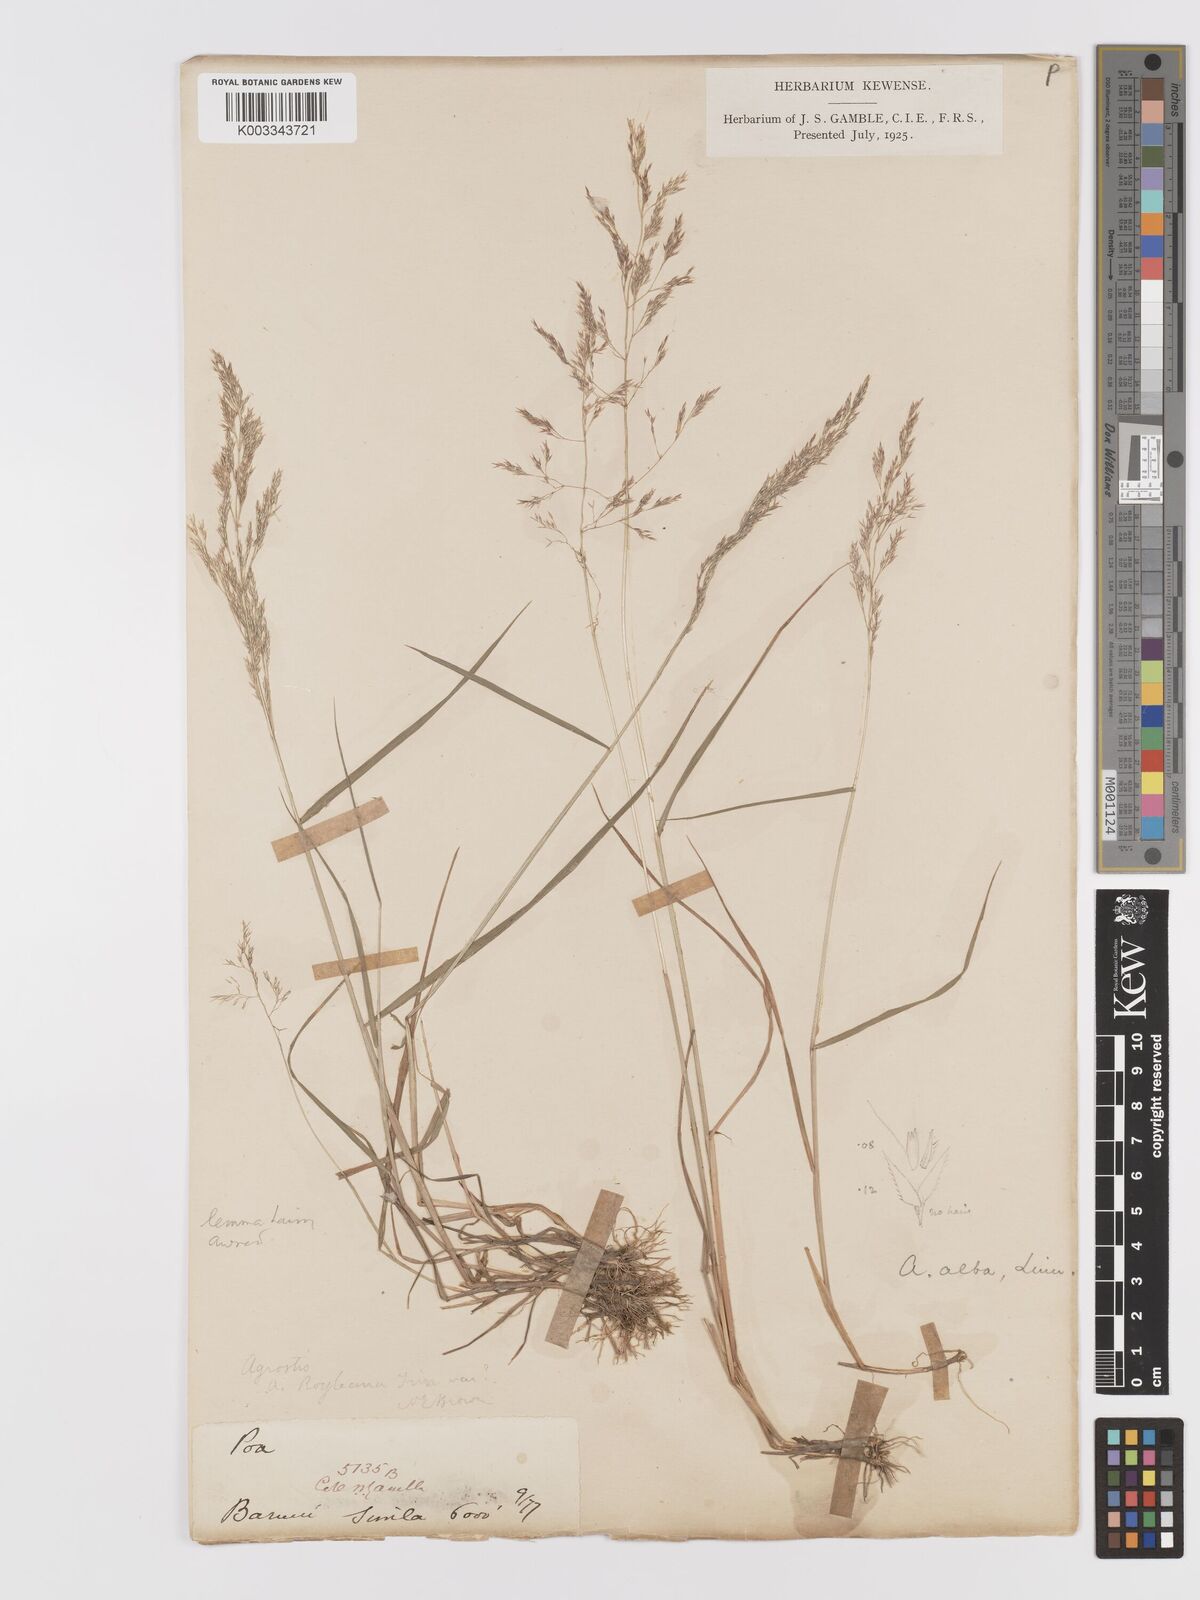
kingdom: Plantae
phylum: Tracheophyta
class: Liliopsida
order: Poales
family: Poaceae
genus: Agrostis
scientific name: Agrostis pilosula
